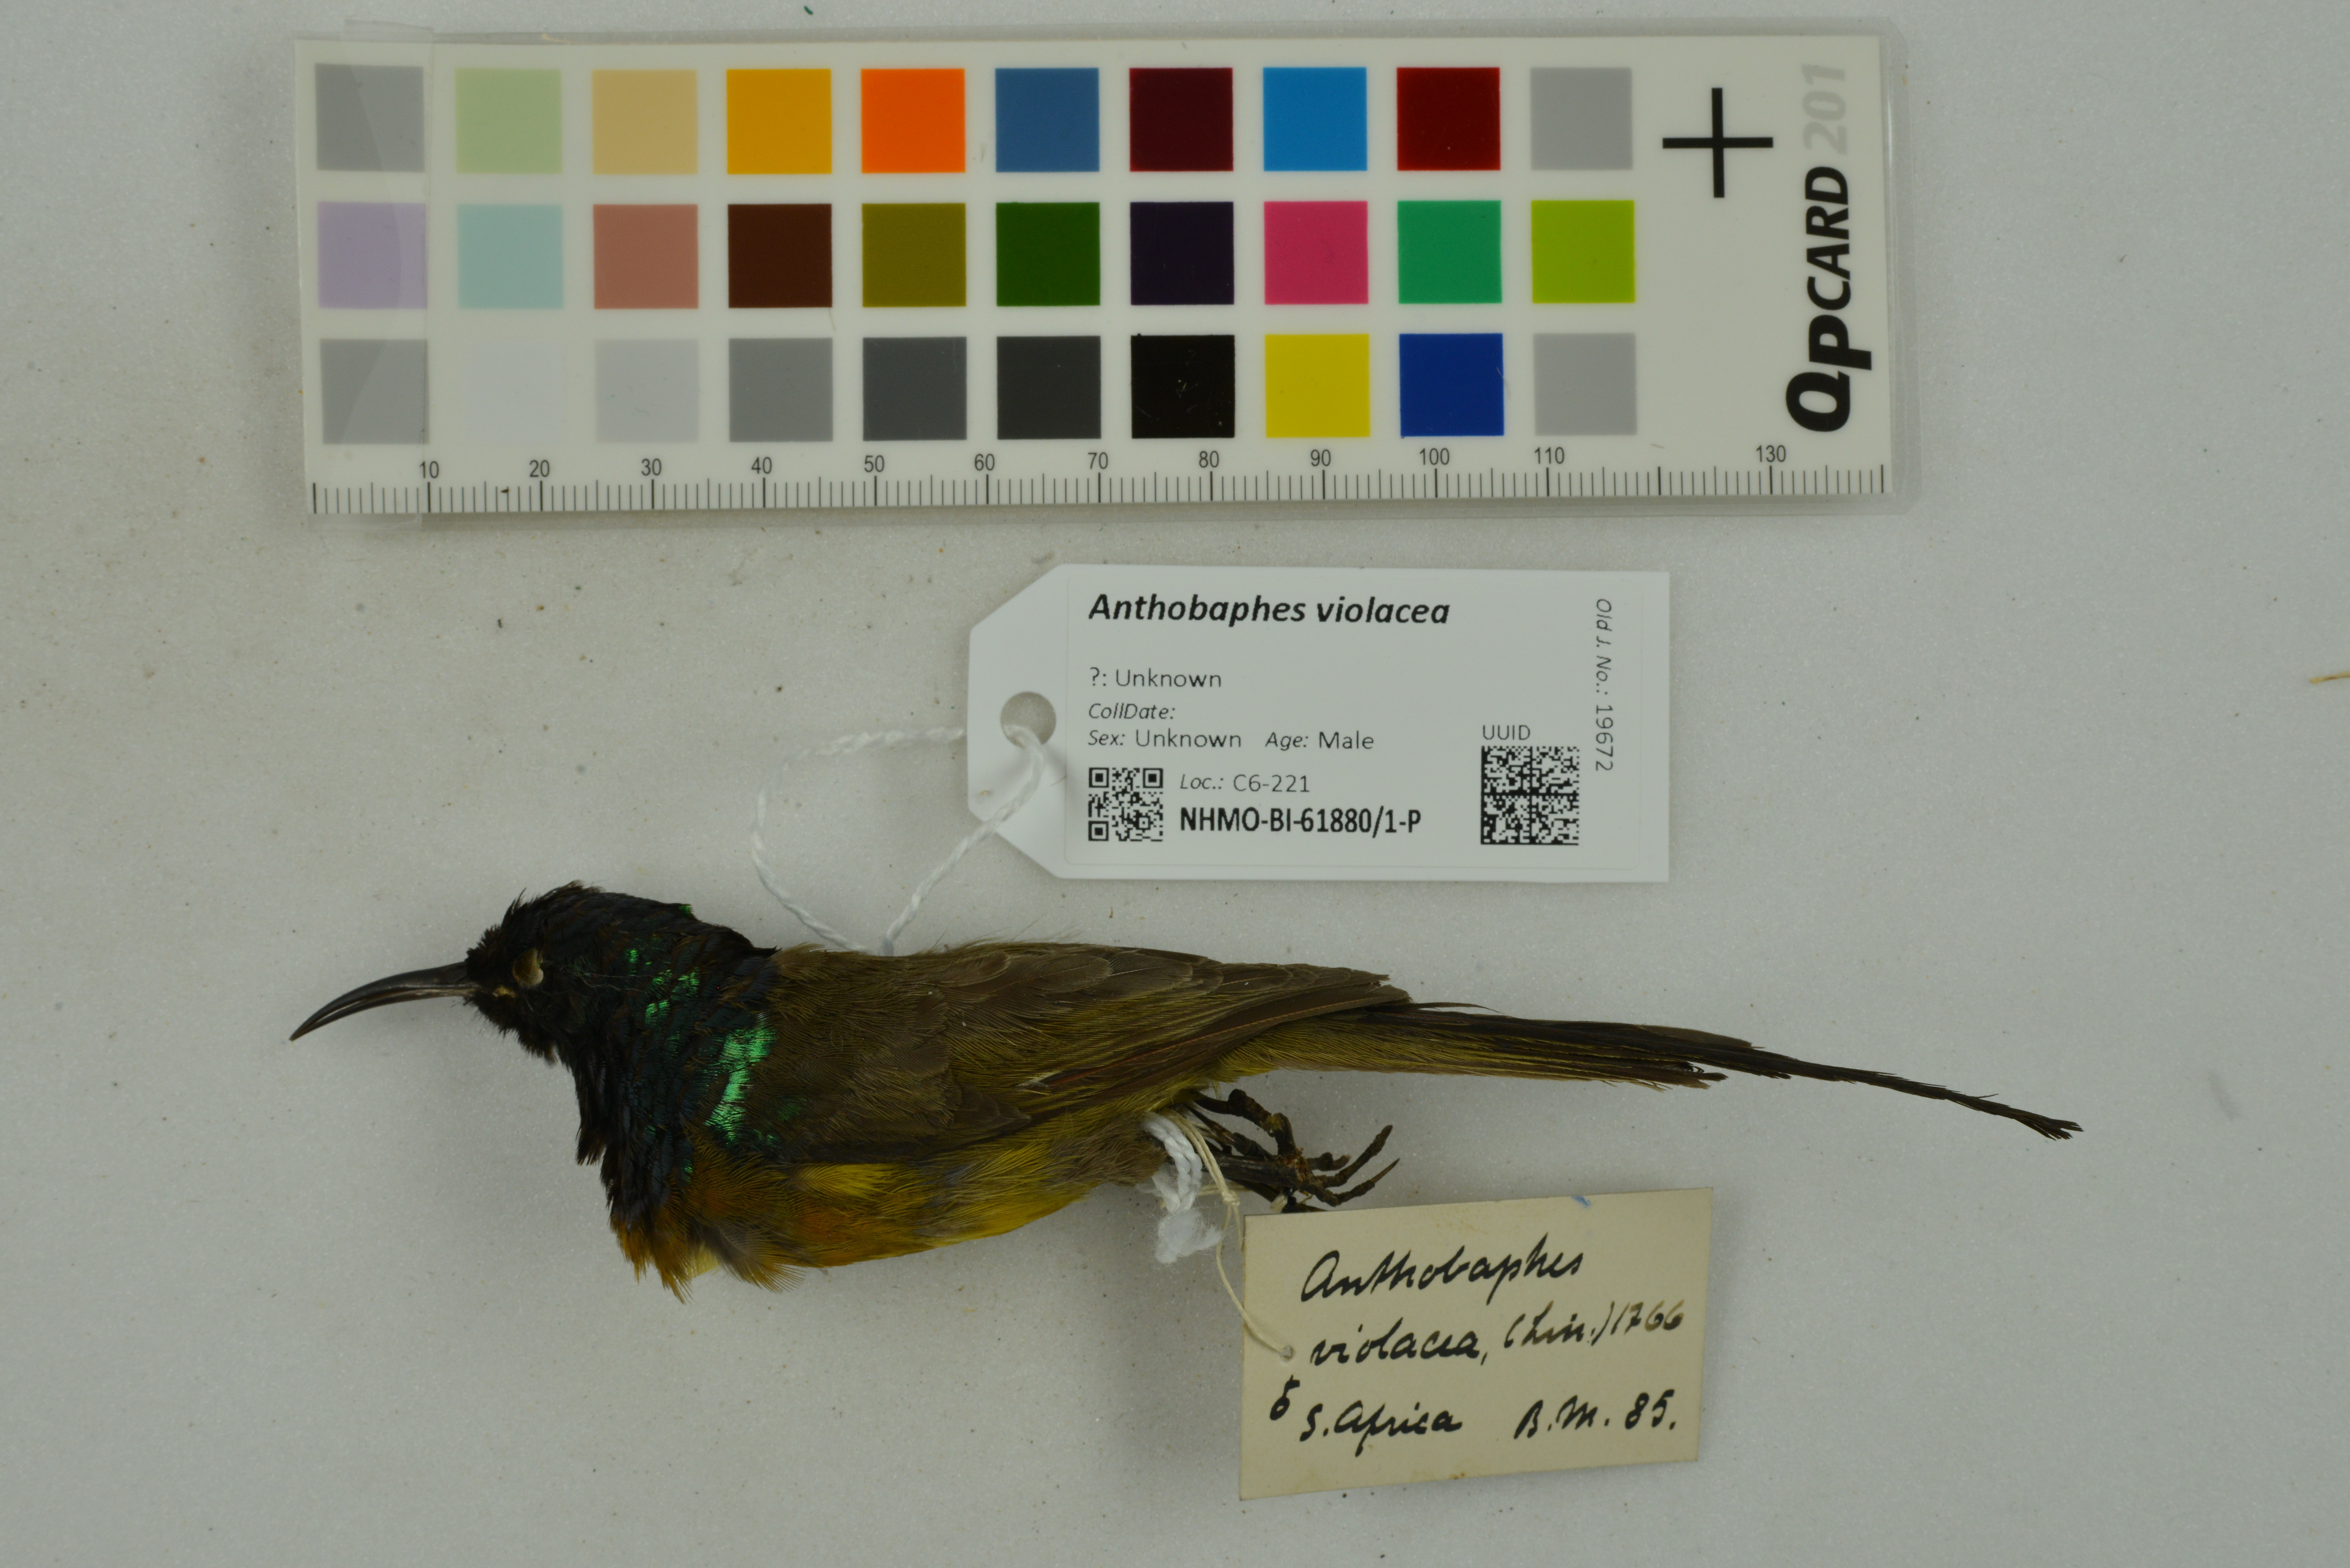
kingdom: Animalia
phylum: Chordata
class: Aves
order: Passeriformes
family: Nectariniidae
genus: Anthobaphes
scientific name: Anthobaphes violacea
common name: Orange-breasted sunbird
